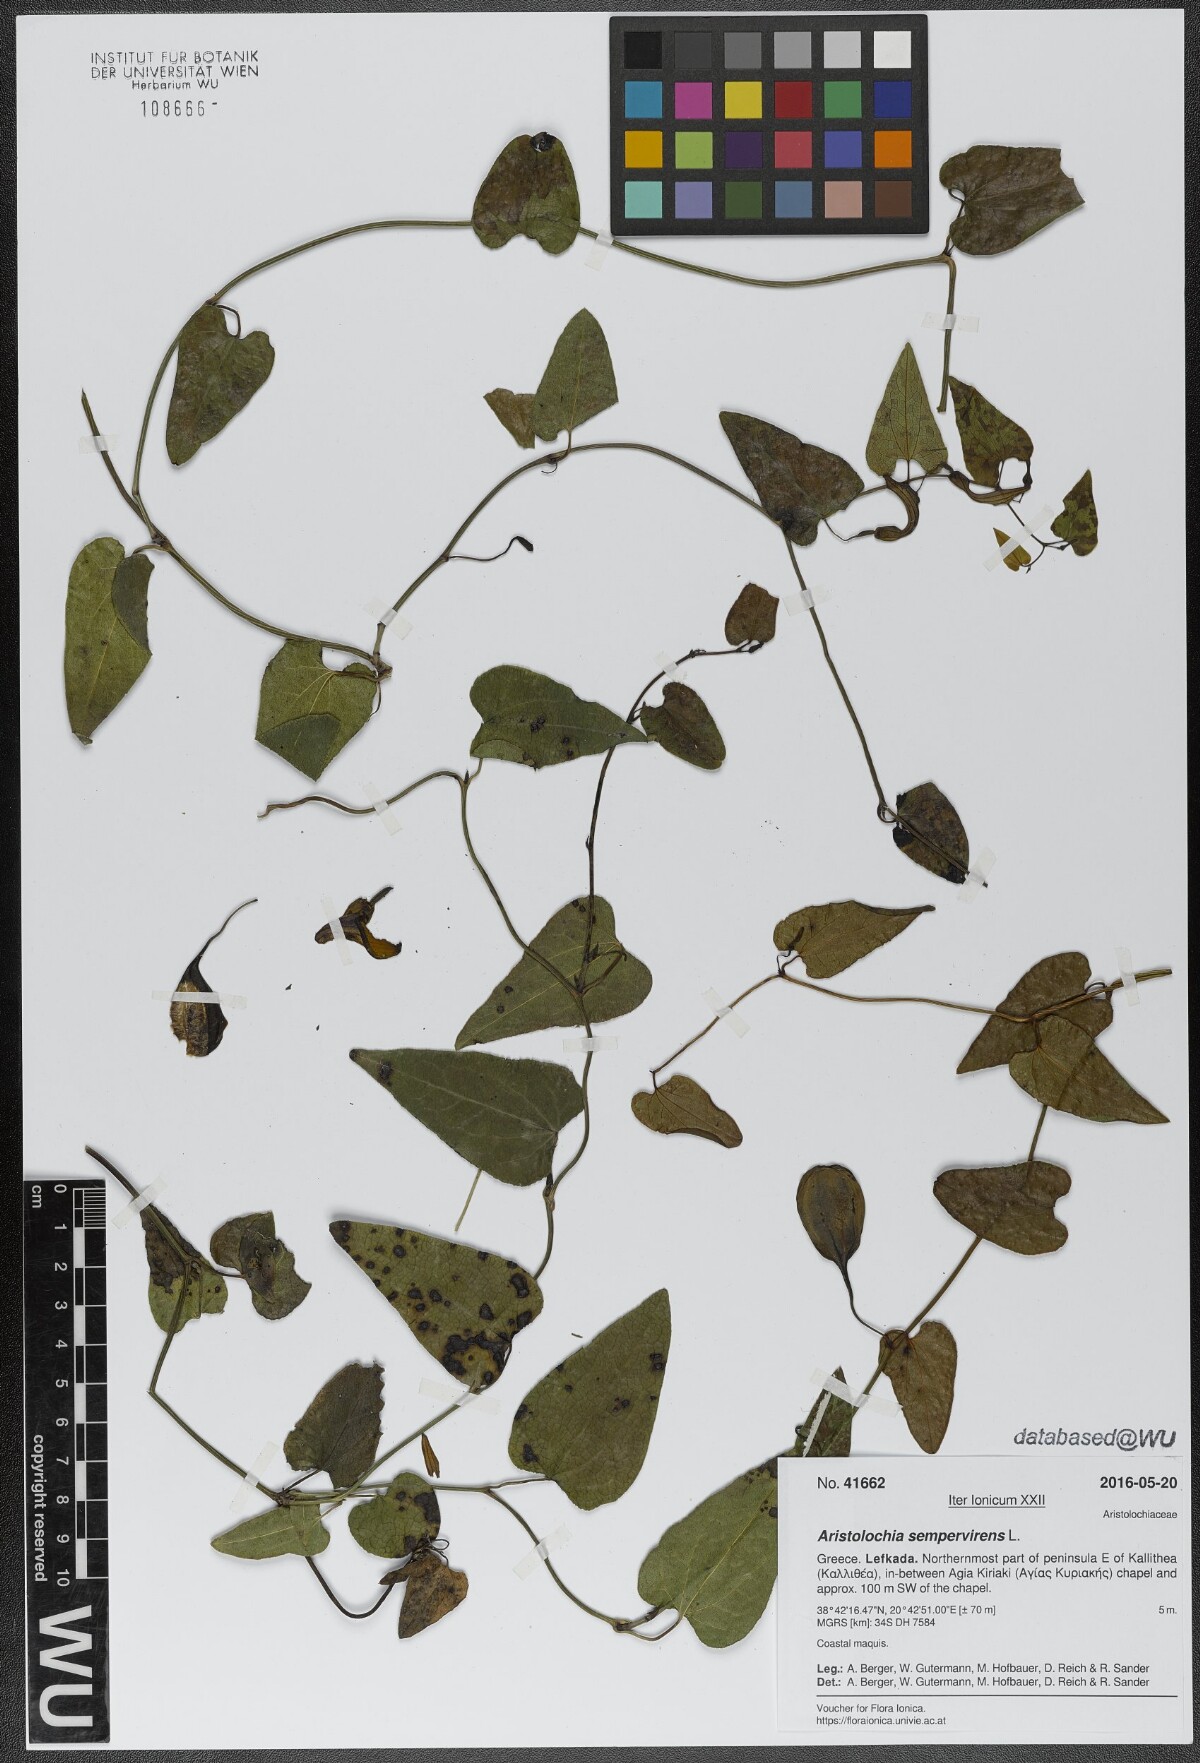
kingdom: Plantae
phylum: Tracheophyta
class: Magnoliopsida
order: Piperales
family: Aristolochiaceae
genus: Aristolochia
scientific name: Aristolochia sempervirens
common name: Long birthwort
